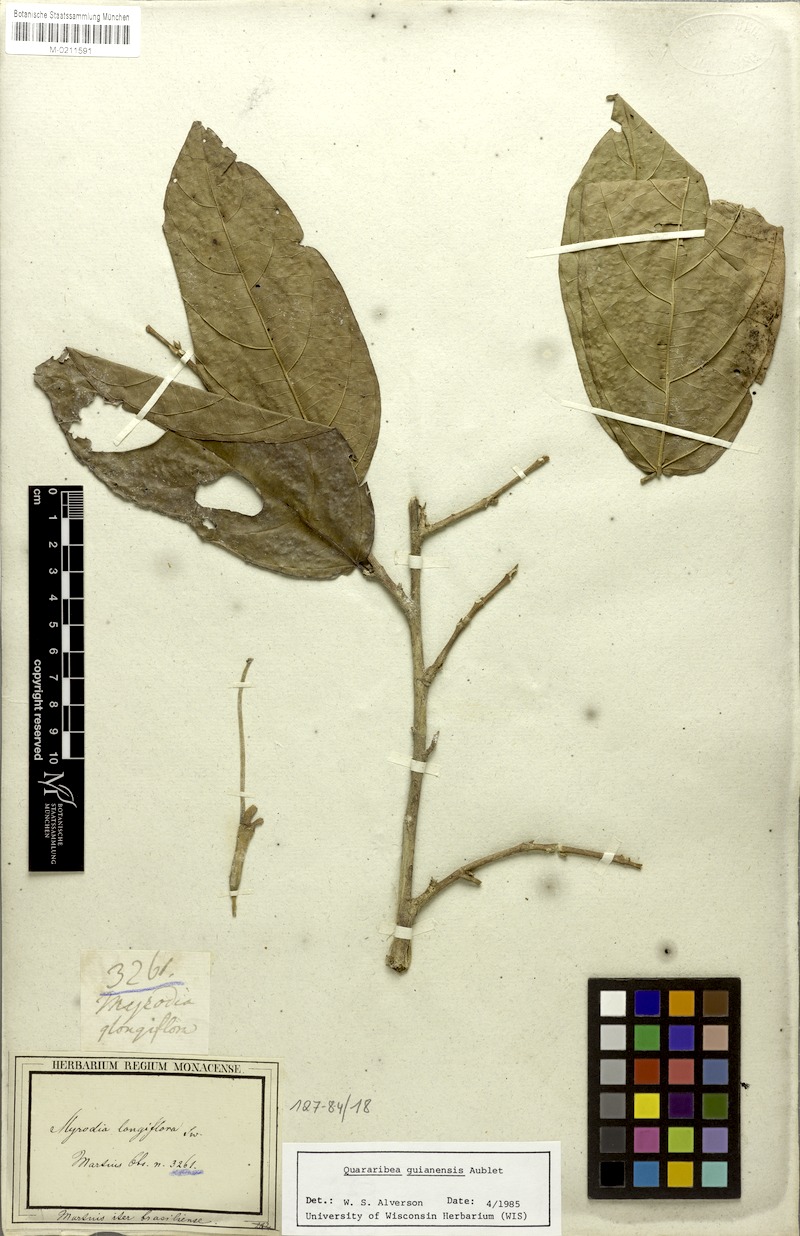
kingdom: Plantae
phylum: Tracheophyta
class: Magnoliopsida
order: Malvales
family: Malvaceae
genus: Quararibea
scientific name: Quararibea guianensis
